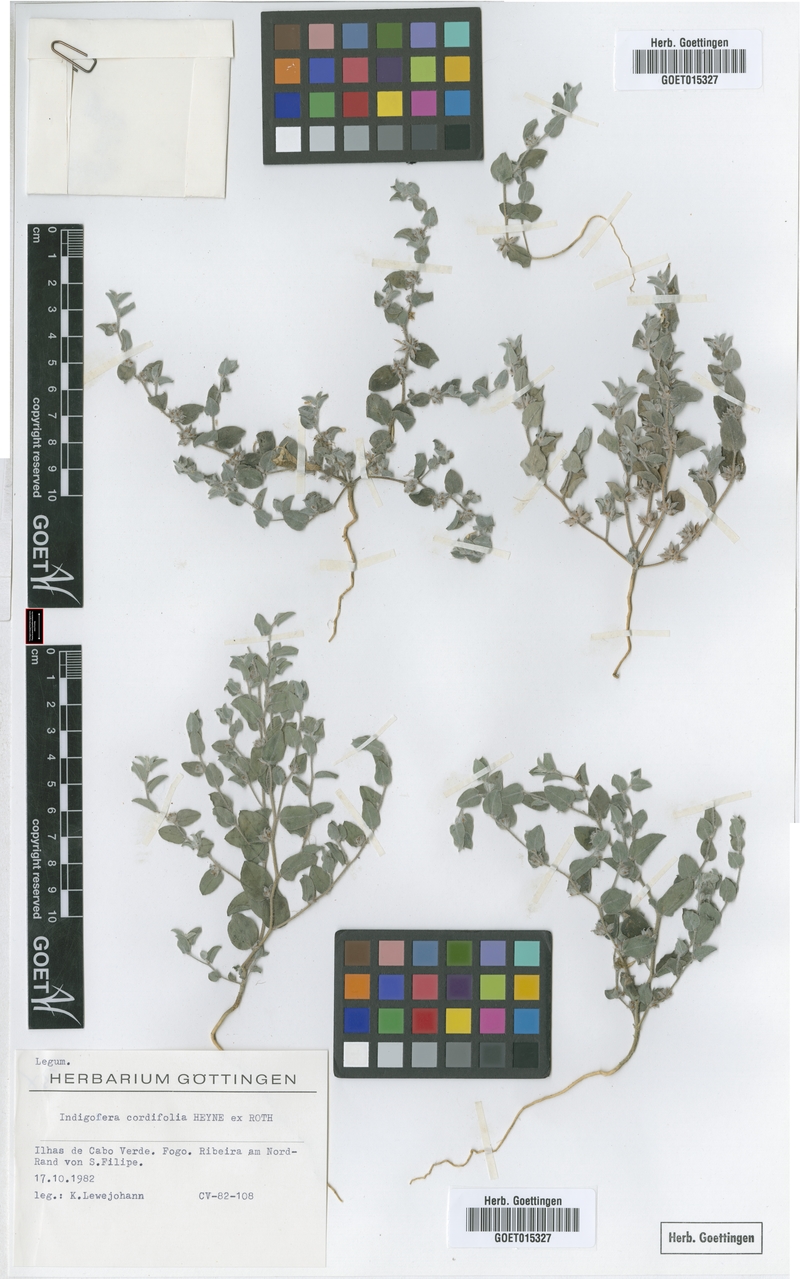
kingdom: Plantae
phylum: Tracheophyta
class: Magnoliopsida
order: Fabales
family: Fabaceae
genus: Indigofera
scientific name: Indigofera cordifolia
